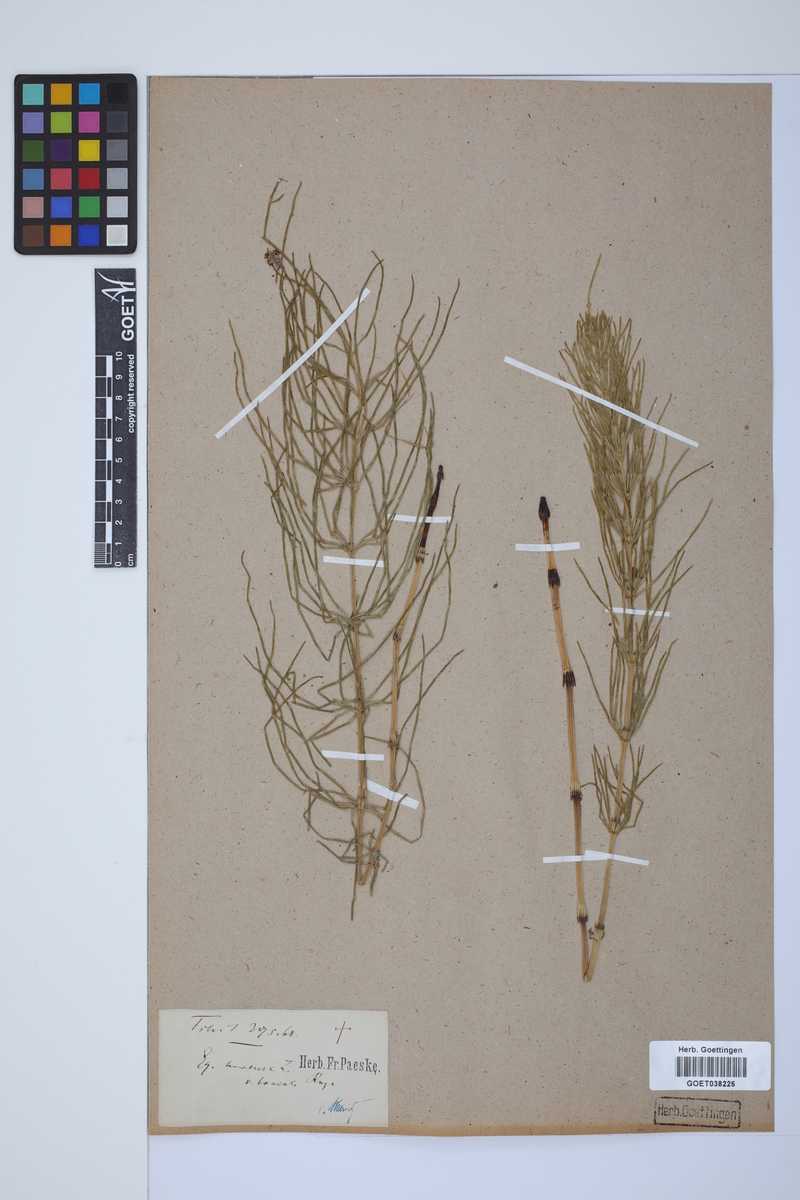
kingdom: Plantae
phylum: Tracheophyta
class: Polypodiopsida
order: Equisetales
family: Equisetaceae
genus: Equisetum
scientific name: Equisetum arvense
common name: Field horsetail
